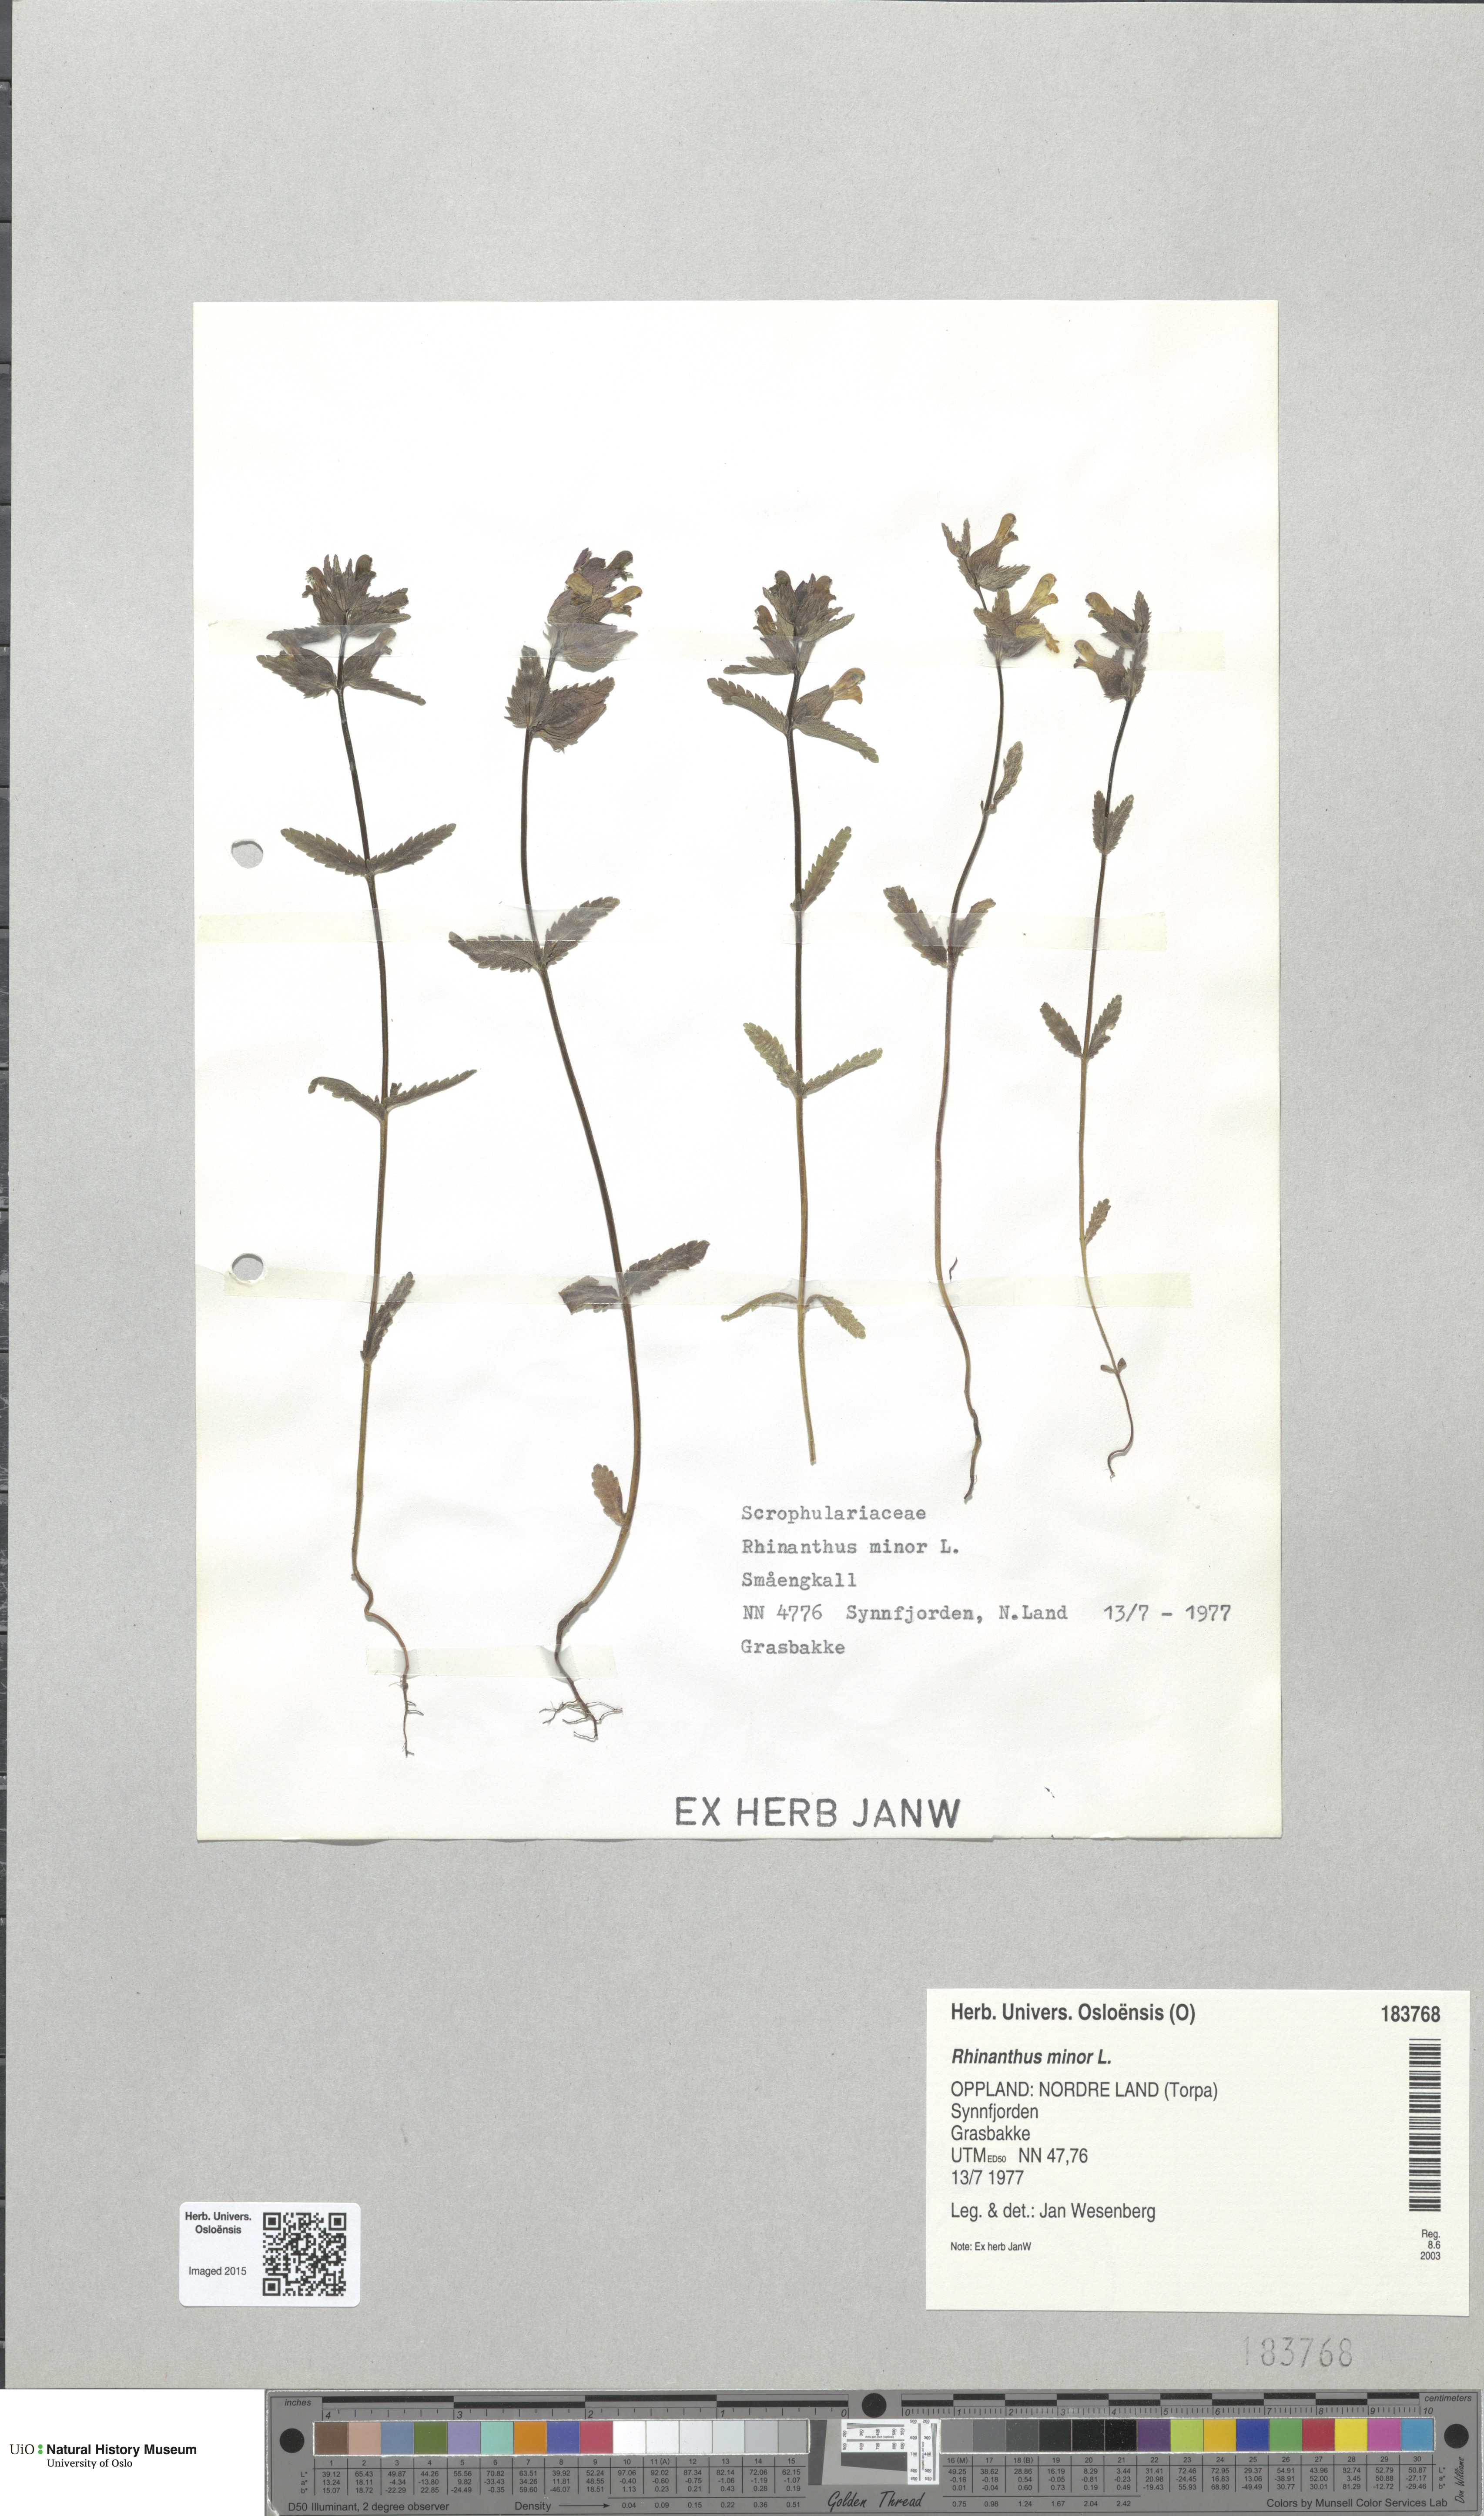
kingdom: Plantae
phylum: Tracheophyta
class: Magnoliopsida
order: Lamiales
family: Orobanchaceae
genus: Rhinanthus
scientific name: Rhinanthus minor
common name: Yellow-rattle
